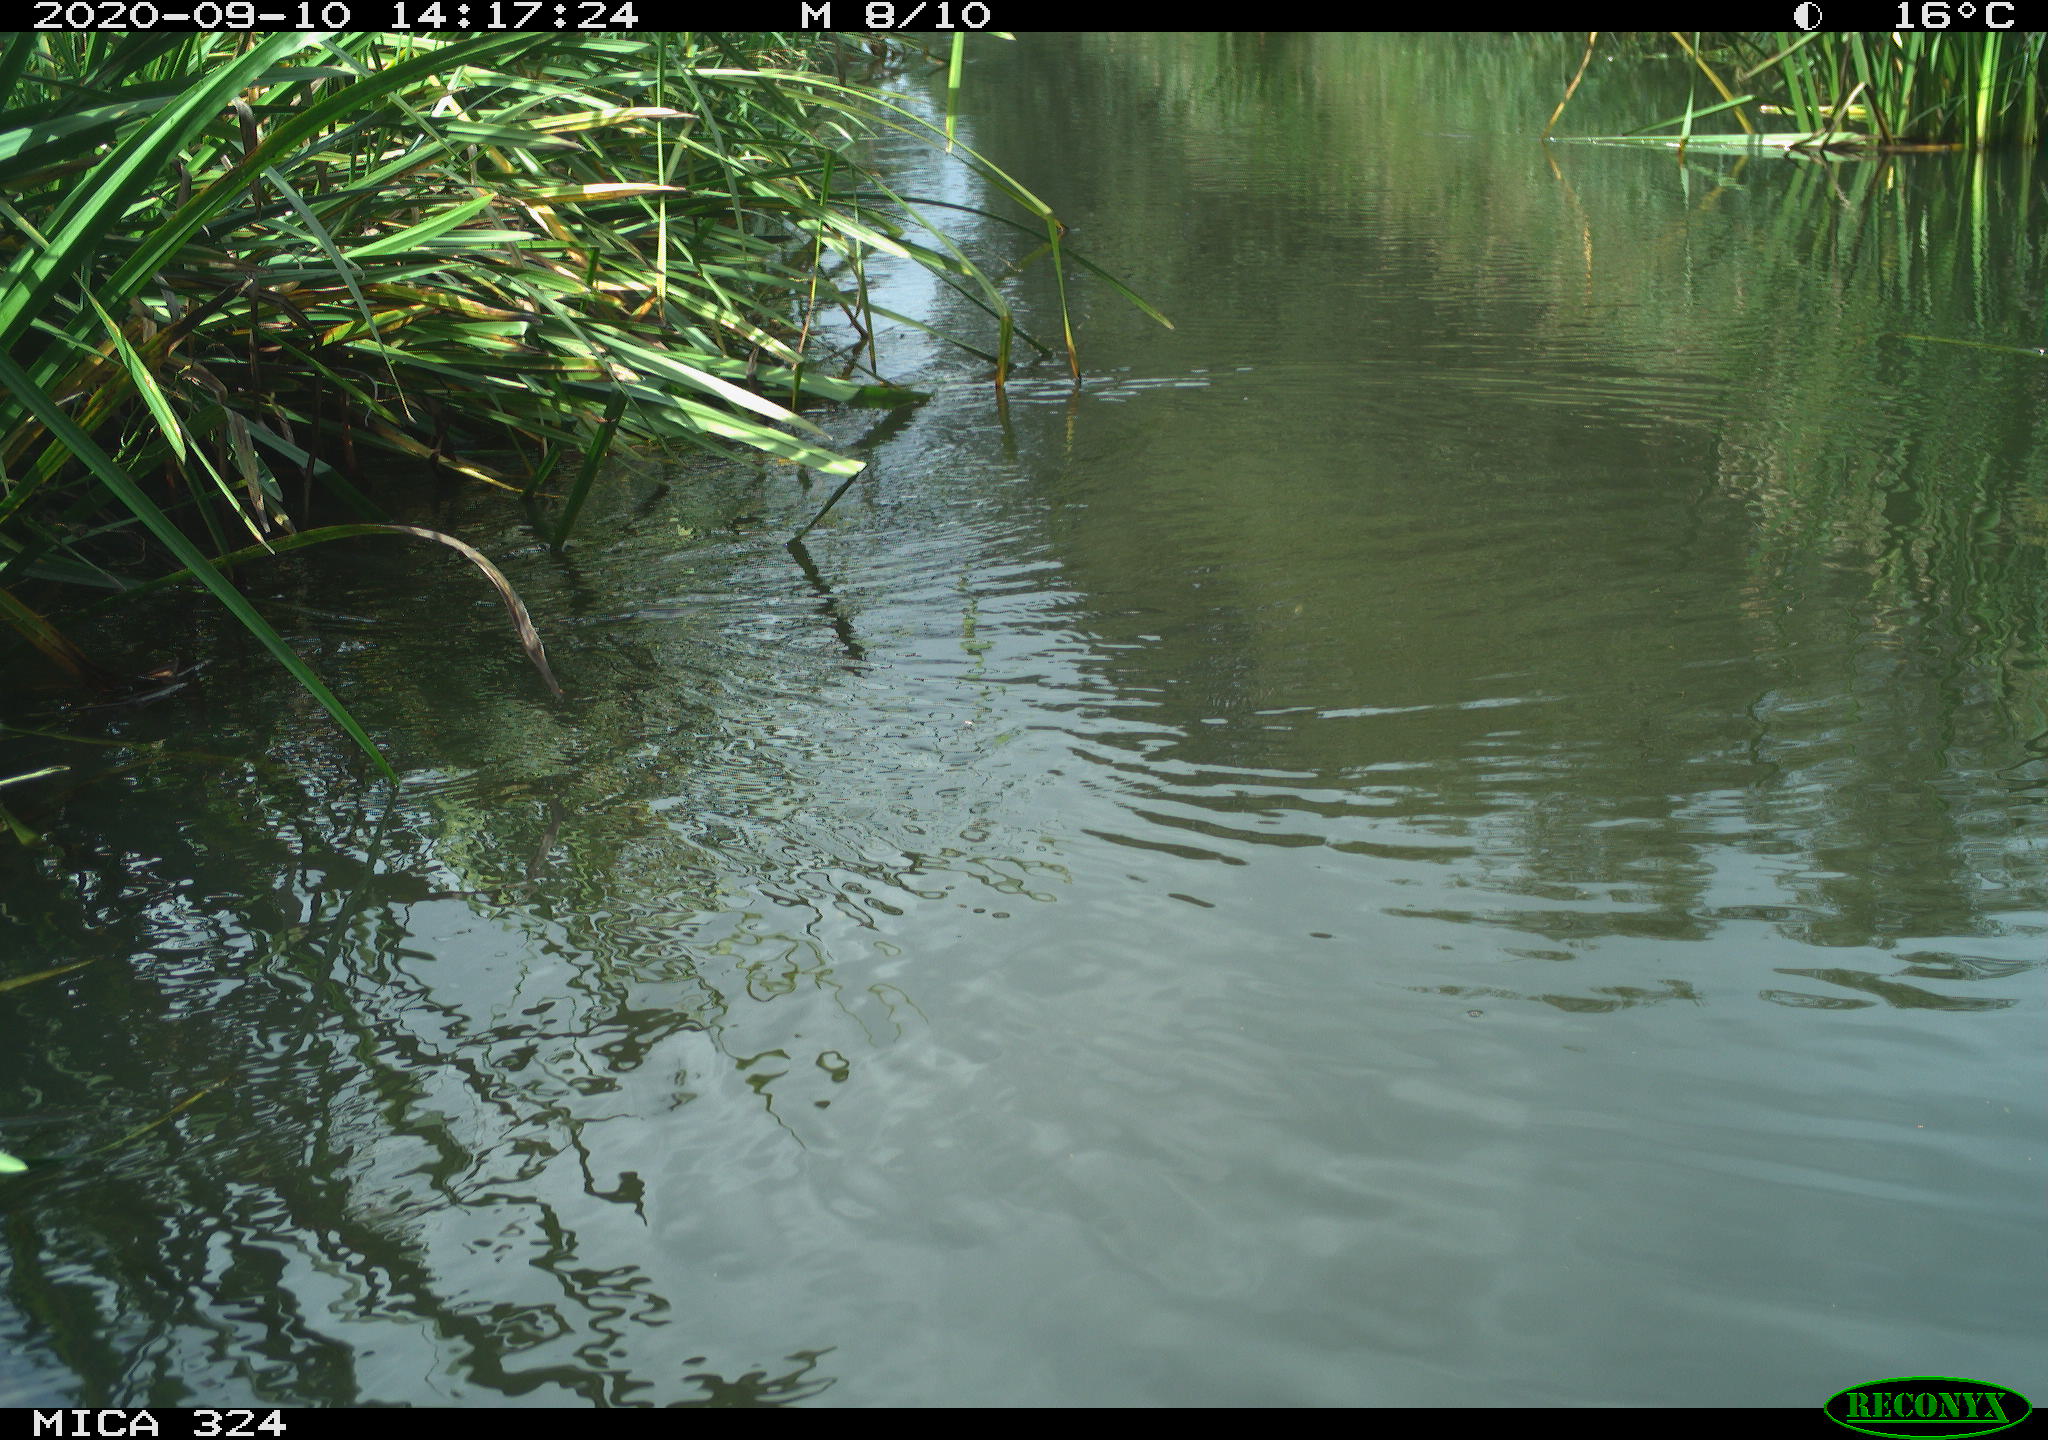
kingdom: Animalia
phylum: Chordata
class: Mammalia
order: Rodentia
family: Cricetidae
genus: Ondatra
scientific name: Ondatra zibethicus
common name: Muskrat
